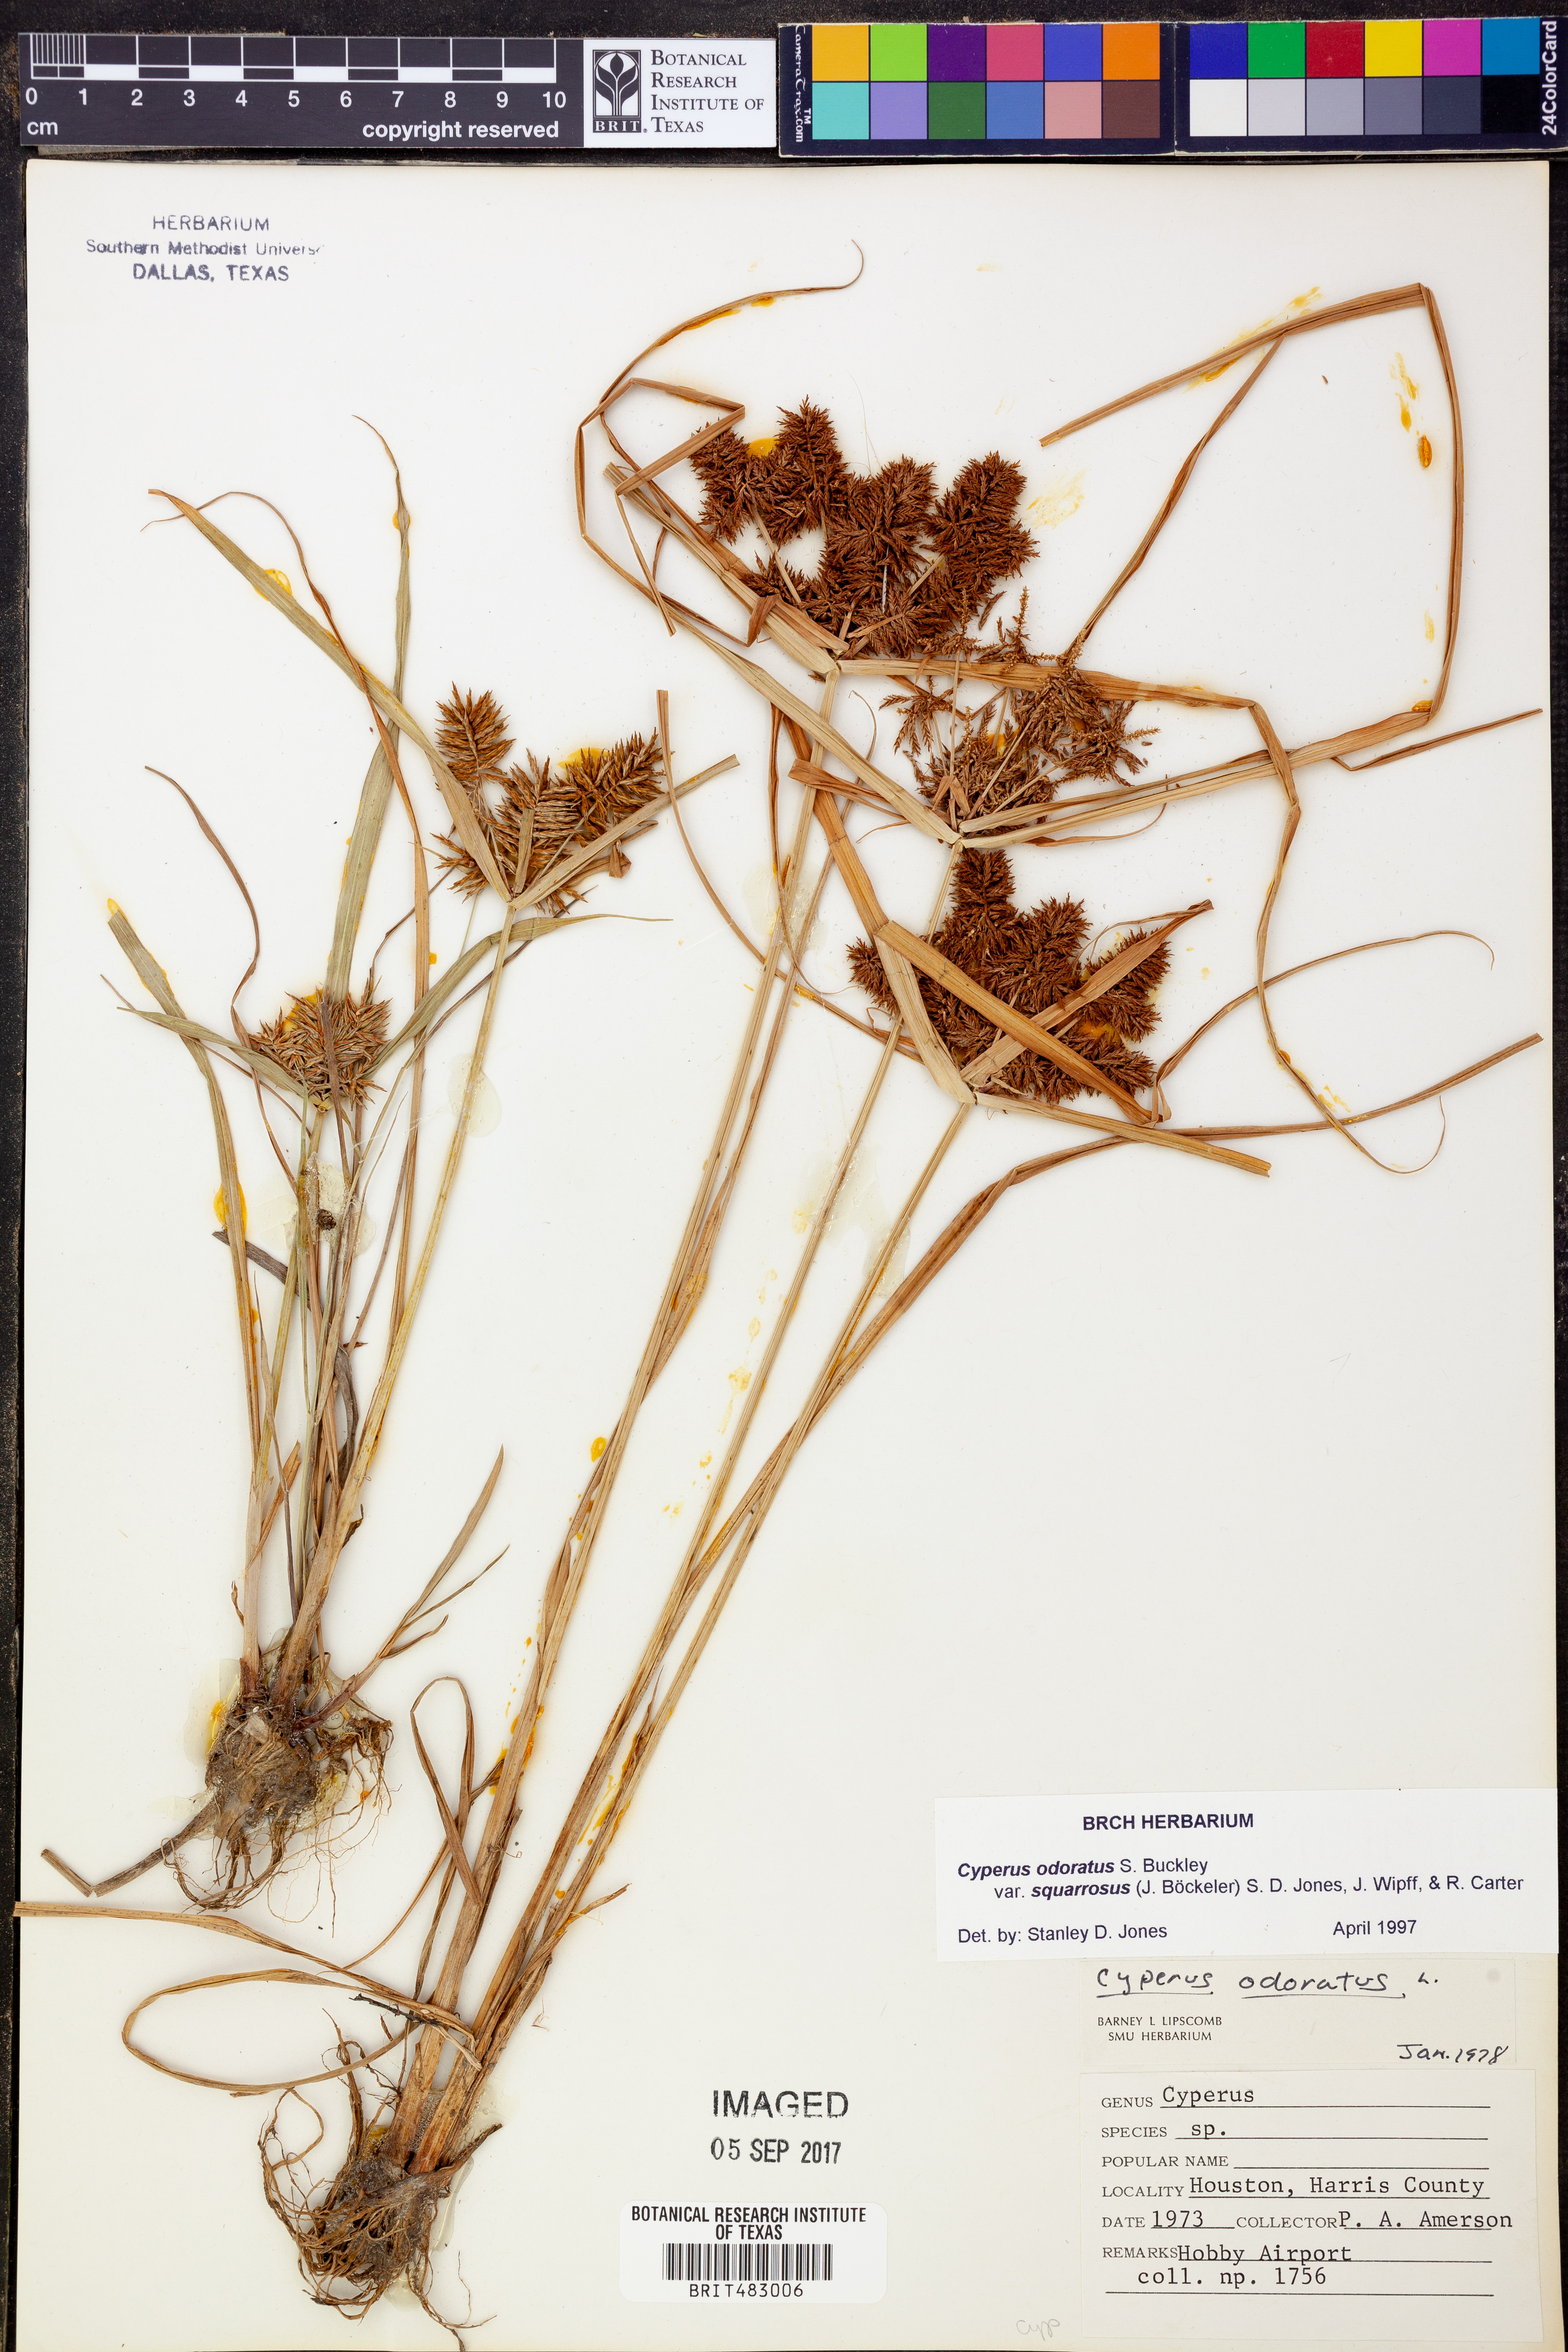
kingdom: Plantae
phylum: Tracheophyta
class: Liliopsida
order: Poales
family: Cyperaceae
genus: Cyperus
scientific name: Cyperus odoratus
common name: Fragrant flatsedge
